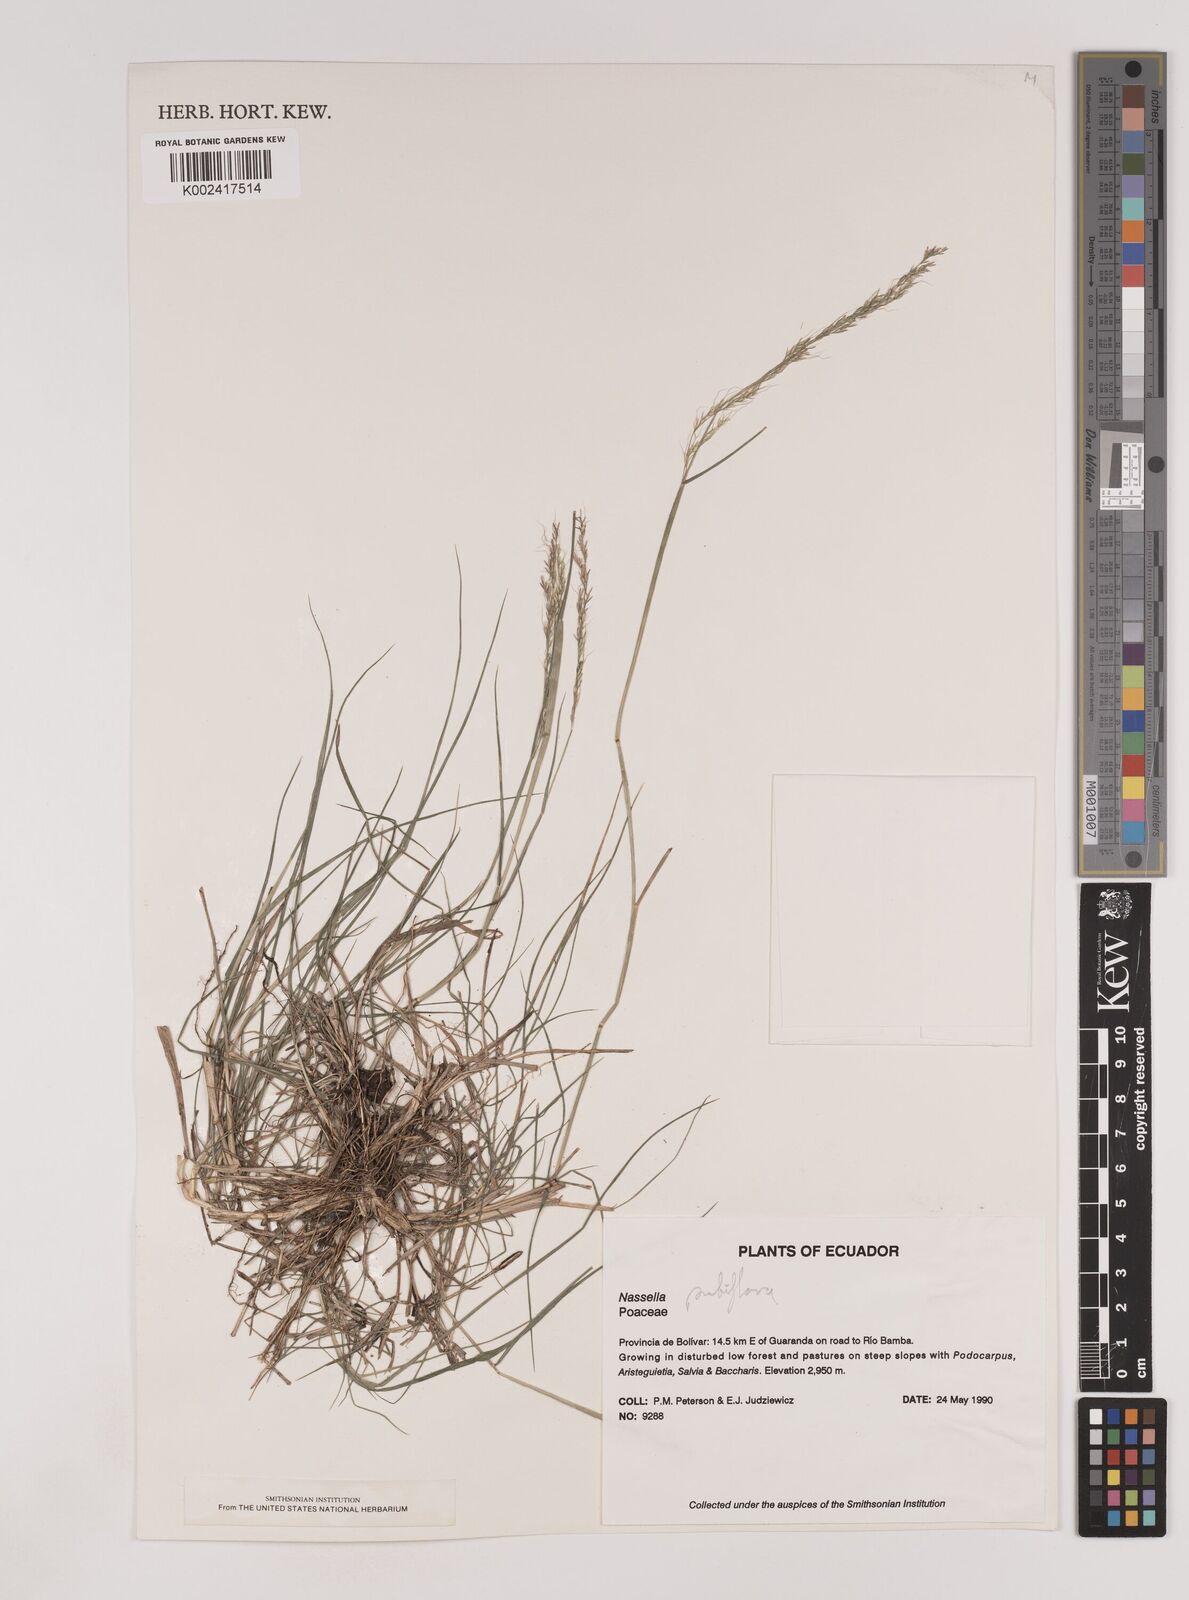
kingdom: Plantae
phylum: Tracheophyta
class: Liliopsida
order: Poales
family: Poaceae
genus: Nassella
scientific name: Nassella pubiflora
